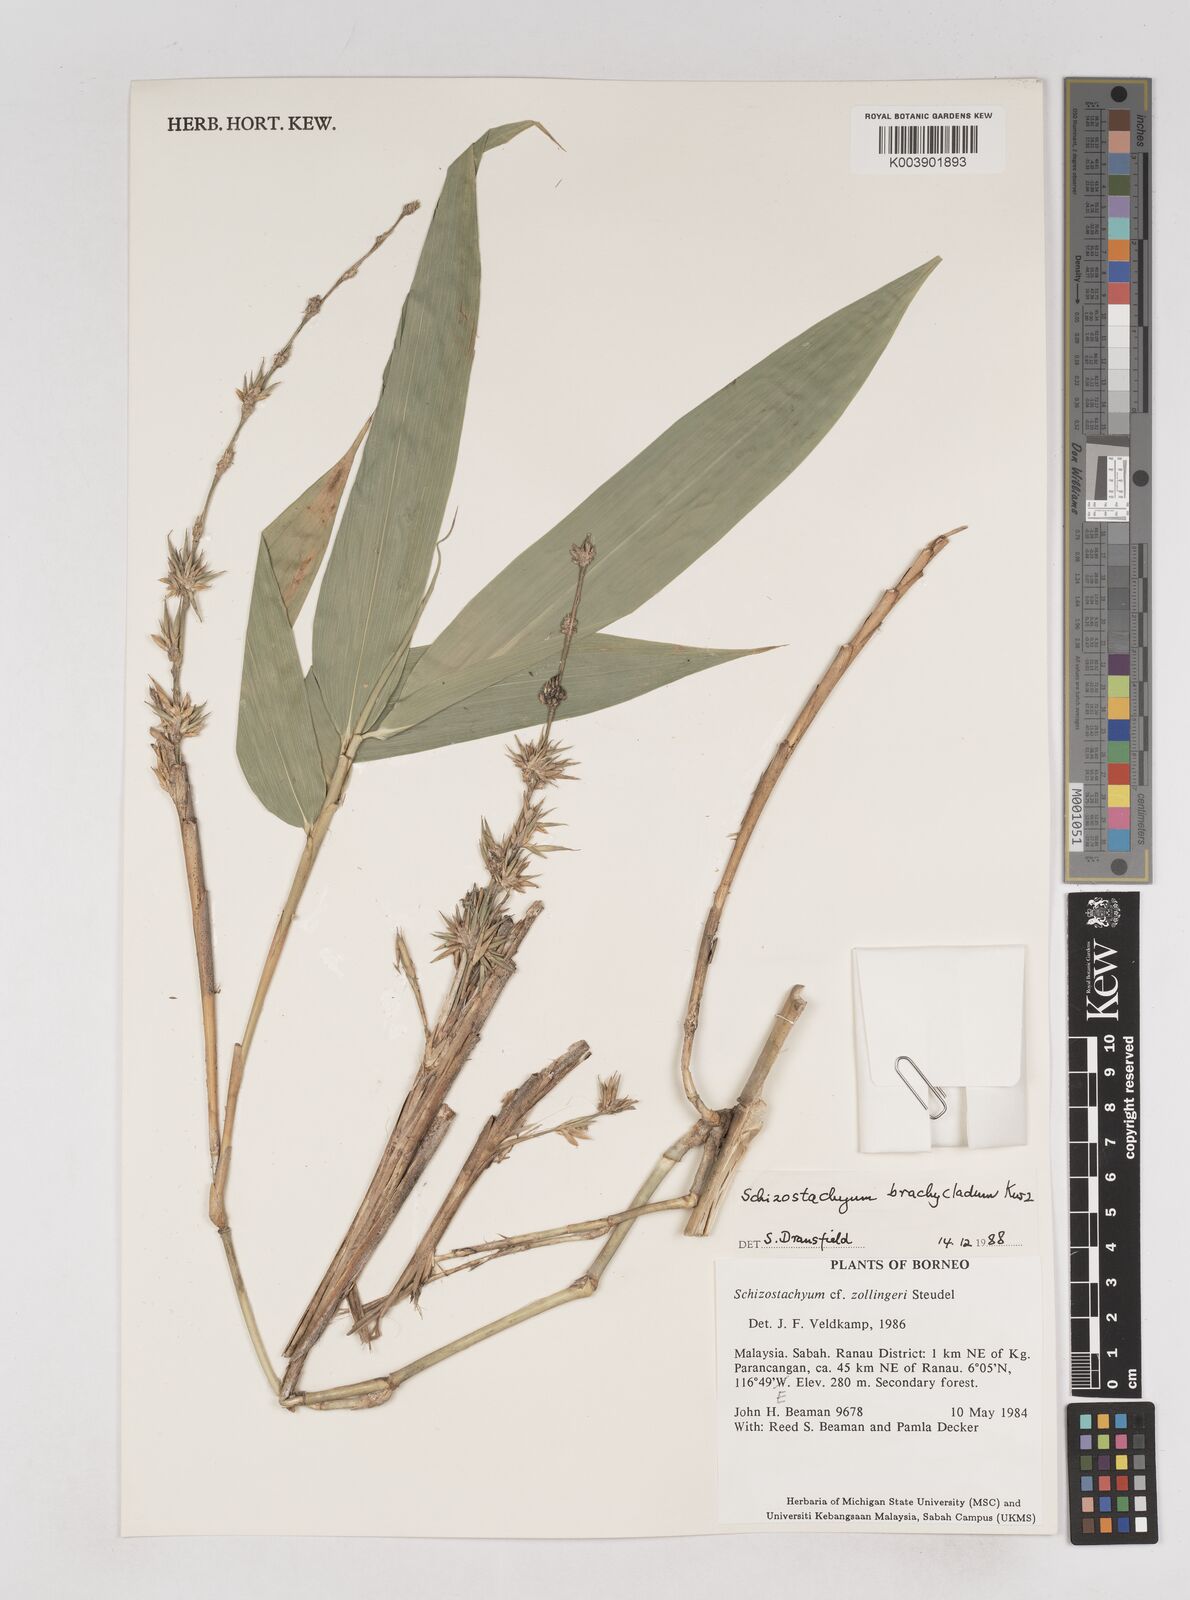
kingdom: Plantae
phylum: Tracheophyta
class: Liliopsida
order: Poales
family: Poaceae
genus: Schizostachyum
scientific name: Schizostachyum brachycladum
